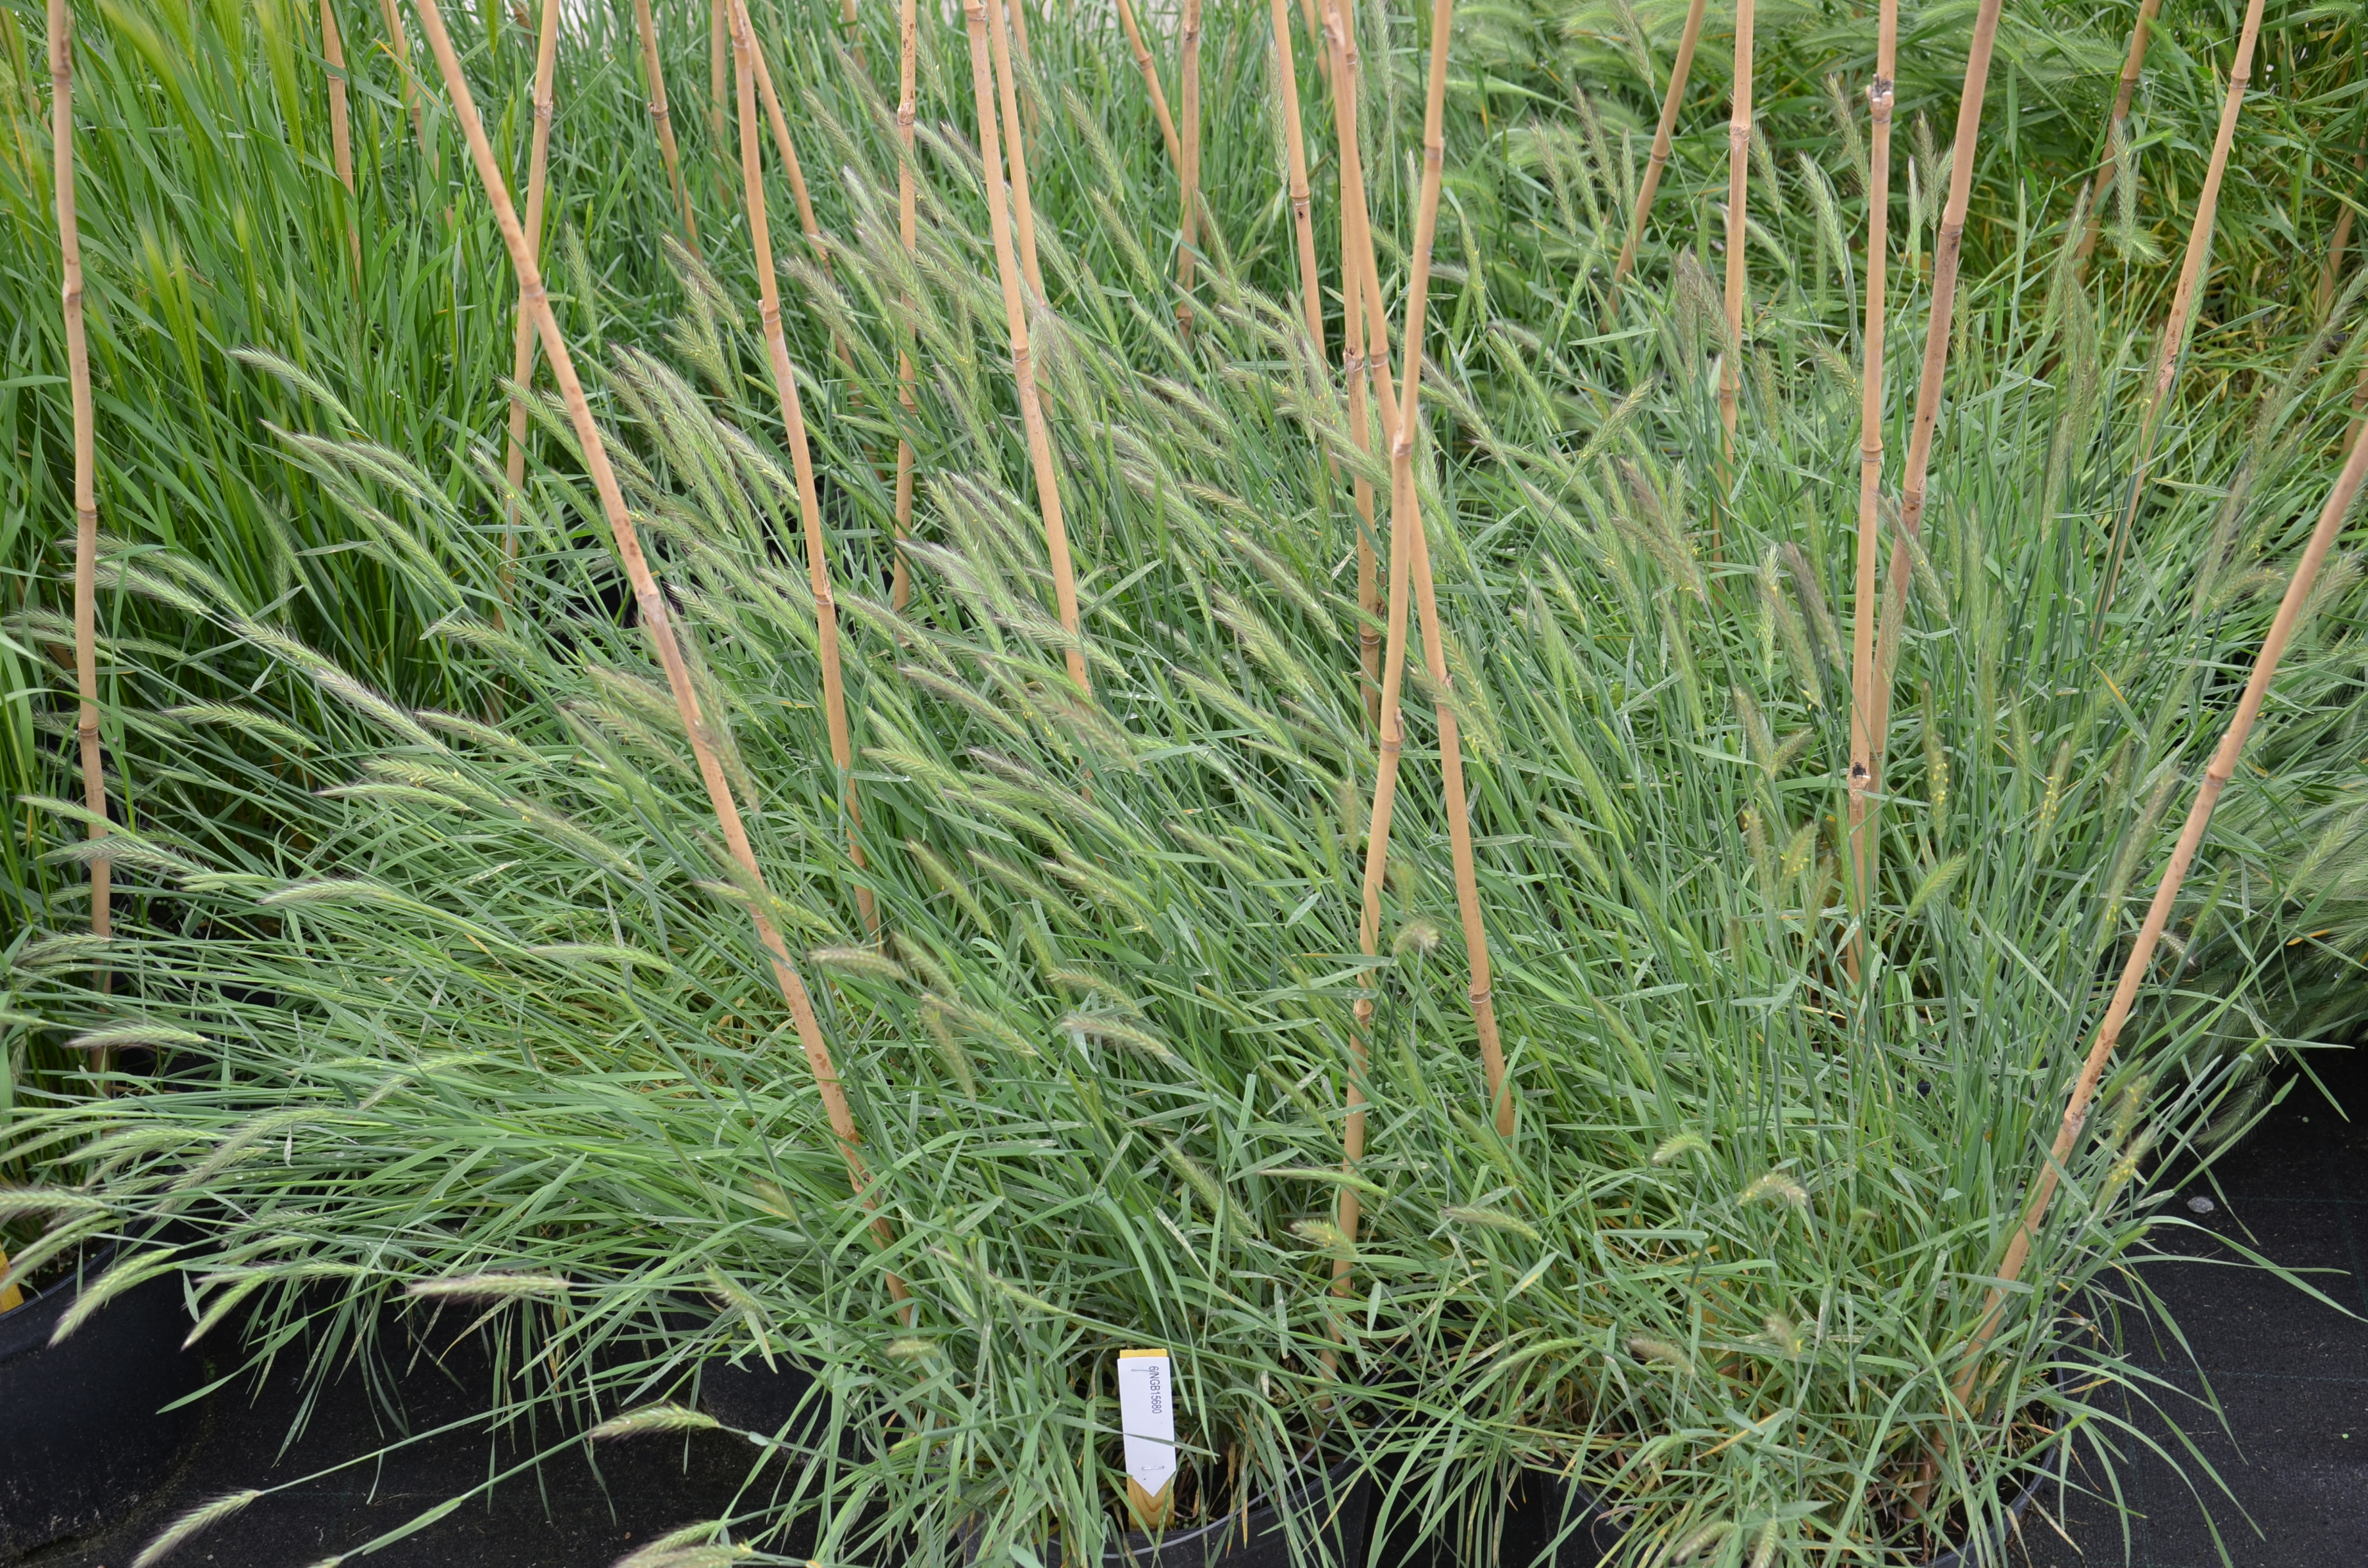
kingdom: Plantae
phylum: Tracheophyta
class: Liliopsida
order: Poales
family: Poaceae
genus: Hordeum
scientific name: Hordeum fuegianum
